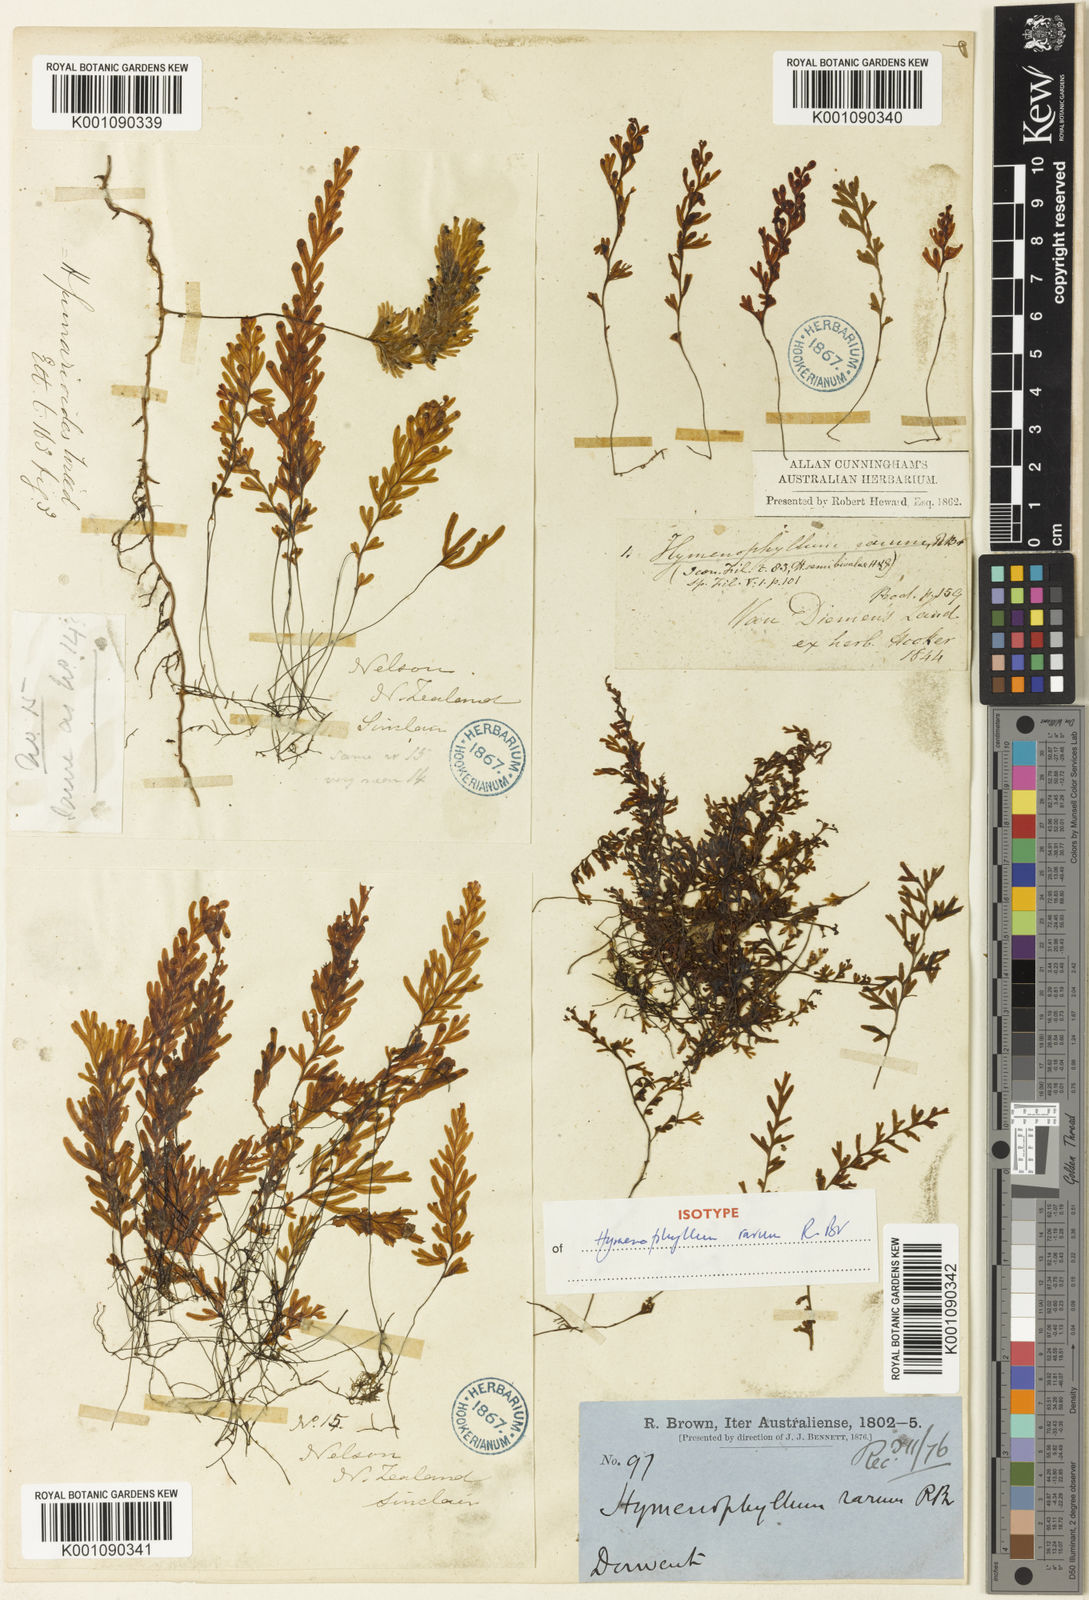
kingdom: Plantae
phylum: Tracheophyta
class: Polypodiopsida
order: Hymenophyllales
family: Hymenophyllaceae
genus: Hymenophyllum
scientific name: Hymenophyllum rarum
